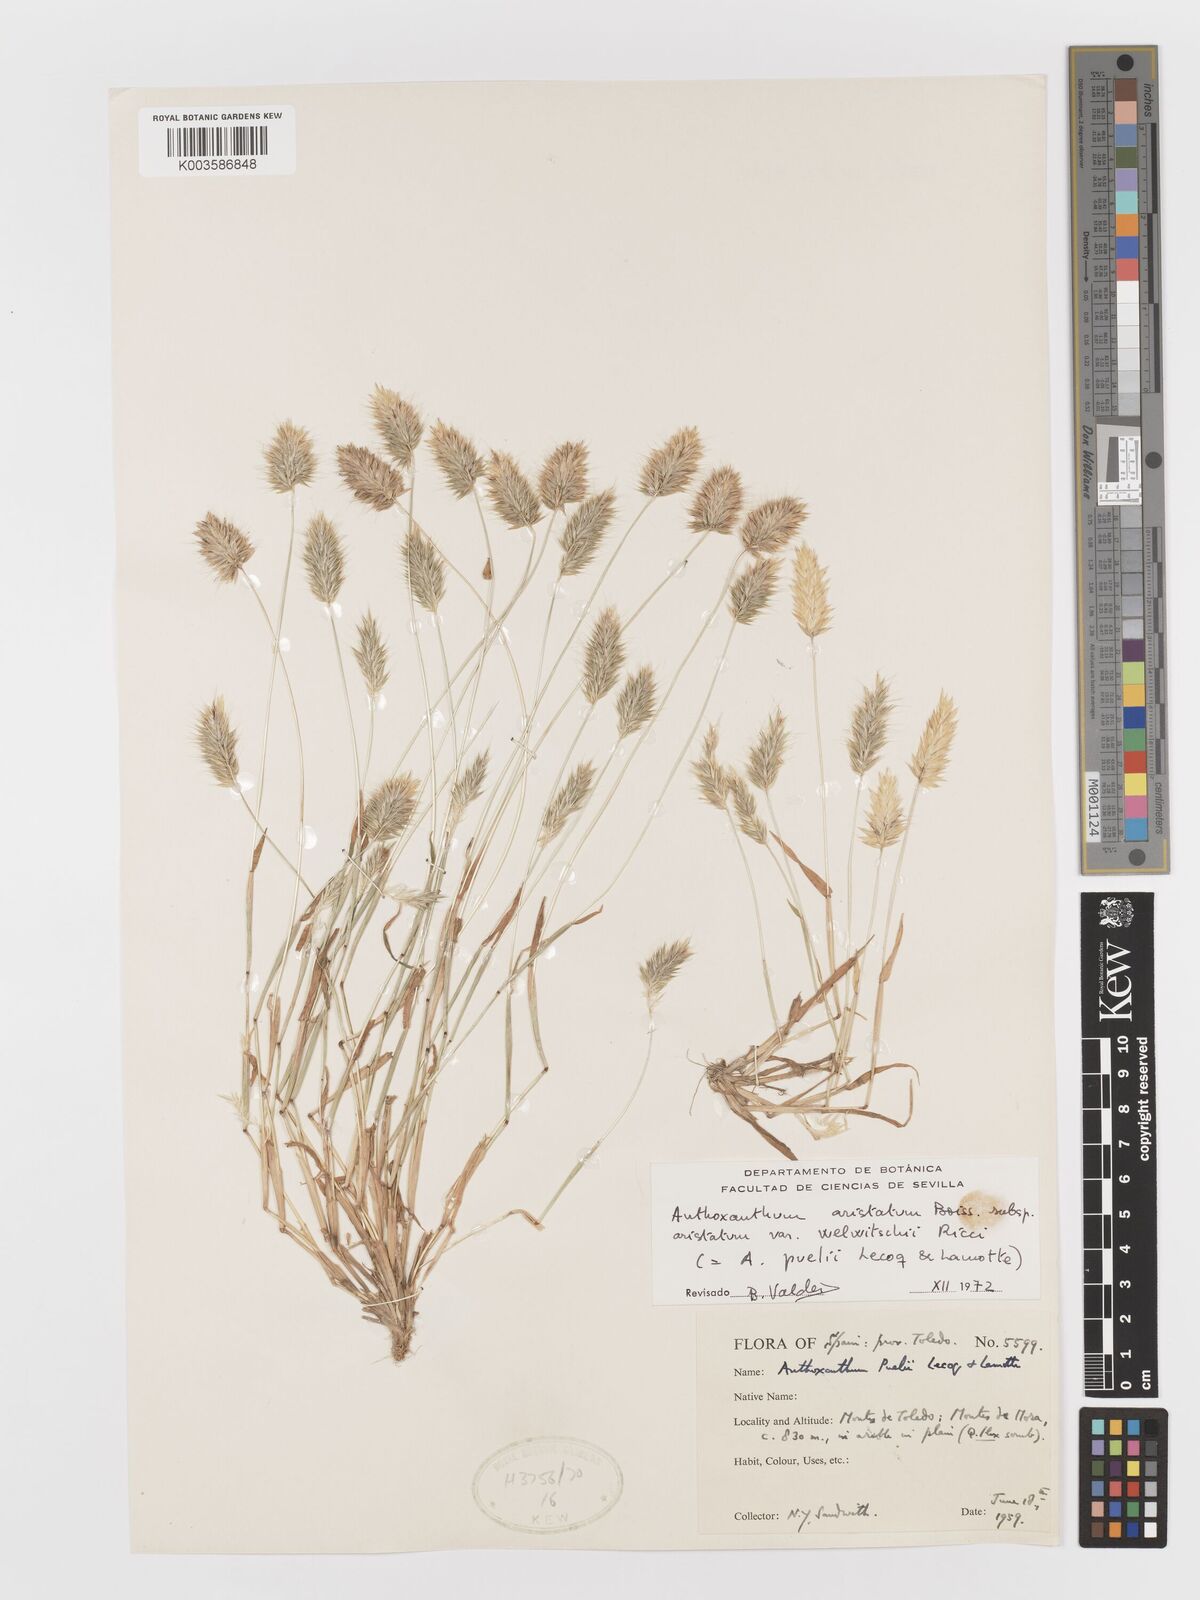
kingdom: Plantae
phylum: Tracheophyta
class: Liliopsida
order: Poales
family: Poaceae
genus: Anthoxanthum
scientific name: Anthoxanthum
